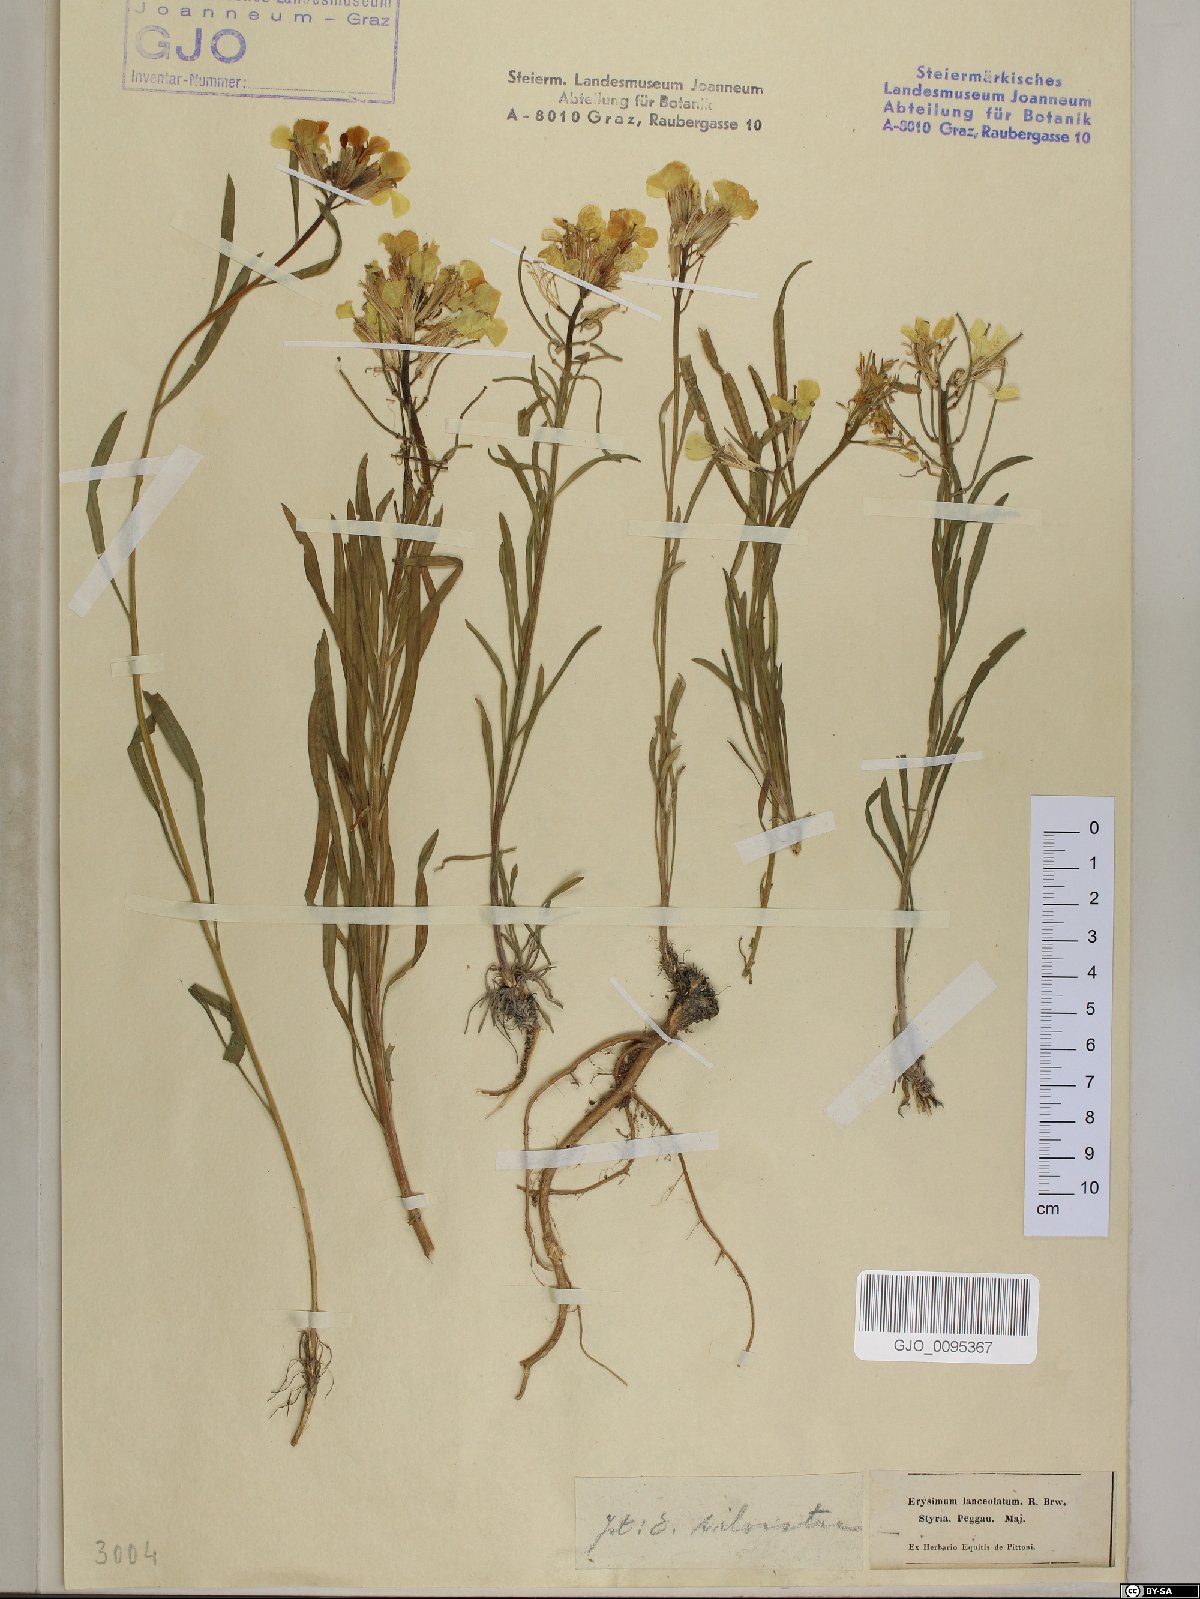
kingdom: Plantae
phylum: Tracheophyta
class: Magnoliopsida
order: Brassicales
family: Brassicaceae
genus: Erysimum
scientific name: Erysimum sylvestre
